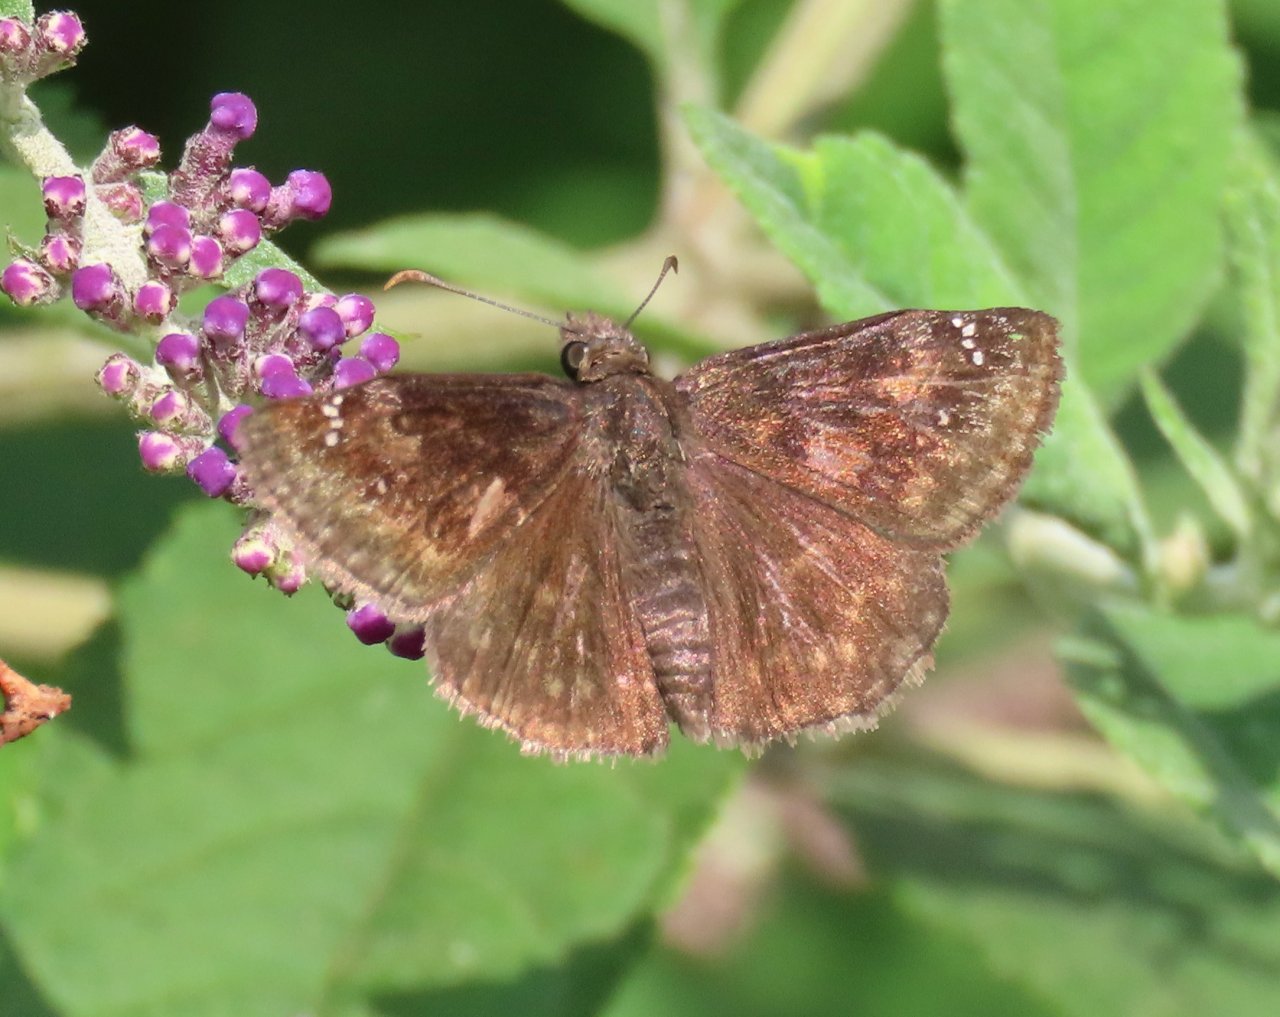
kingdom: Animalia
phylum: Arthropoda
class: Insecta
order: Lepidoptera
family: Hesperiidae
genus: Gesta
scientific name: Gesta
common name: Wild Indigo Duskywing
